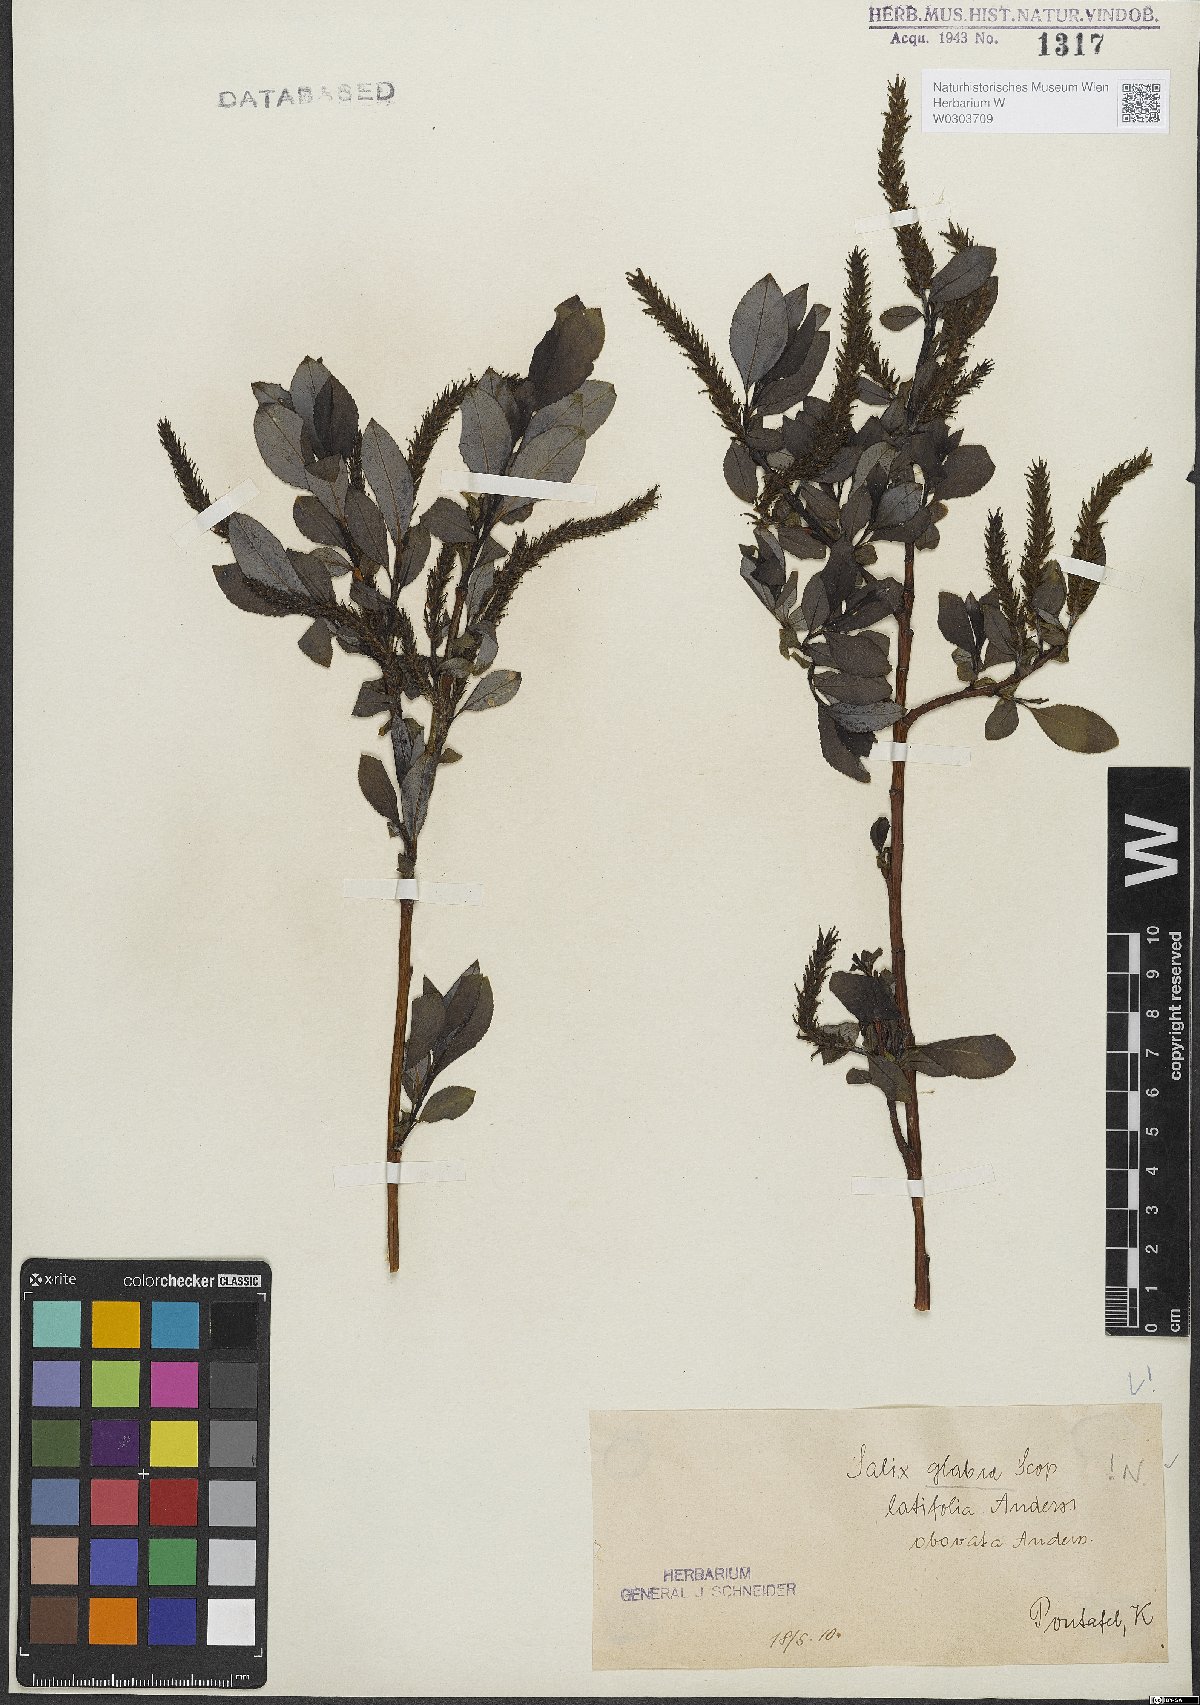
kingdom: Plantae
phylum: Tracheophyta
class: Magnoliopsida
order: Malpighiales
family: Salicaceae
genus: Salix
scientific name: Salix glabra
